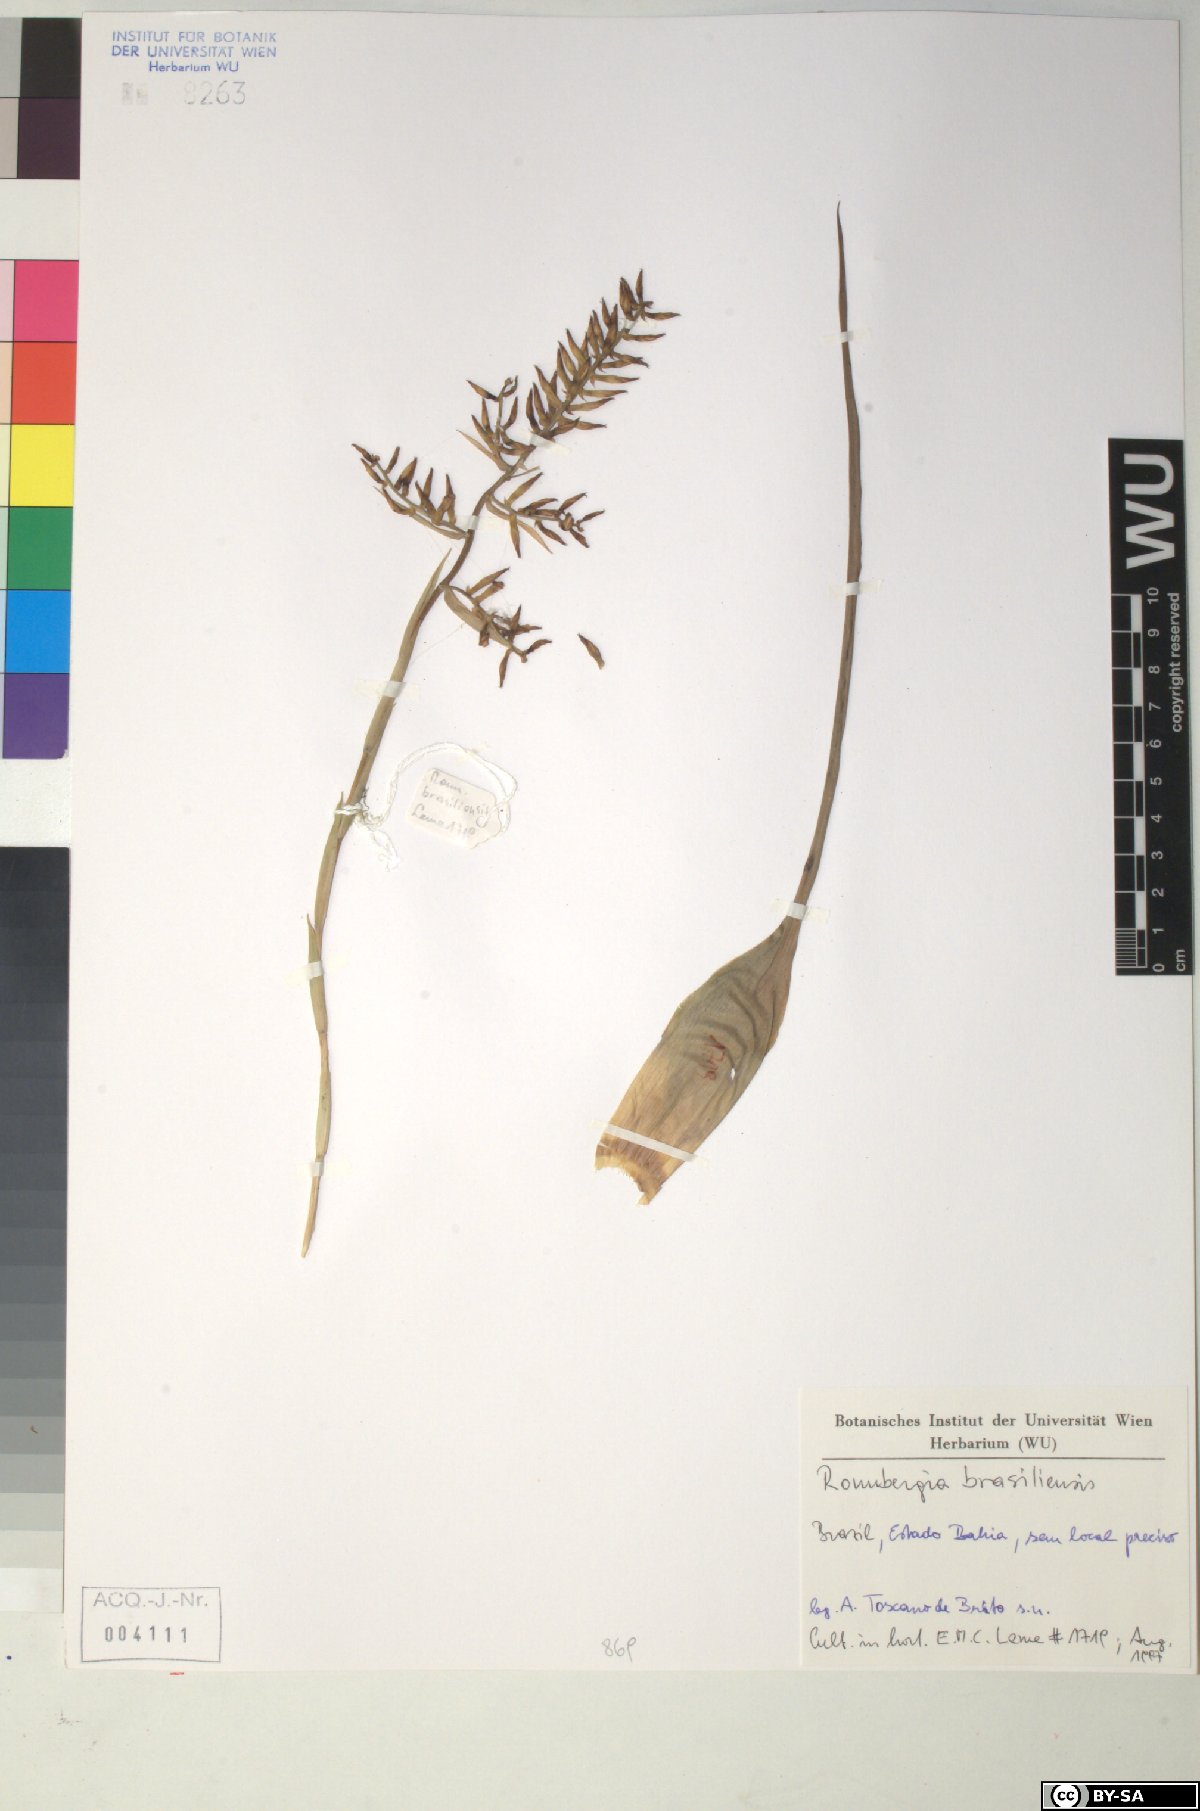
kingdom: Plantae
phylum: Tracheophyta
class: Liliopsida
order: Poales
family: Bromeliaceae
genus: Wittmackia
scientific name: Wittmackia brasiliensis
